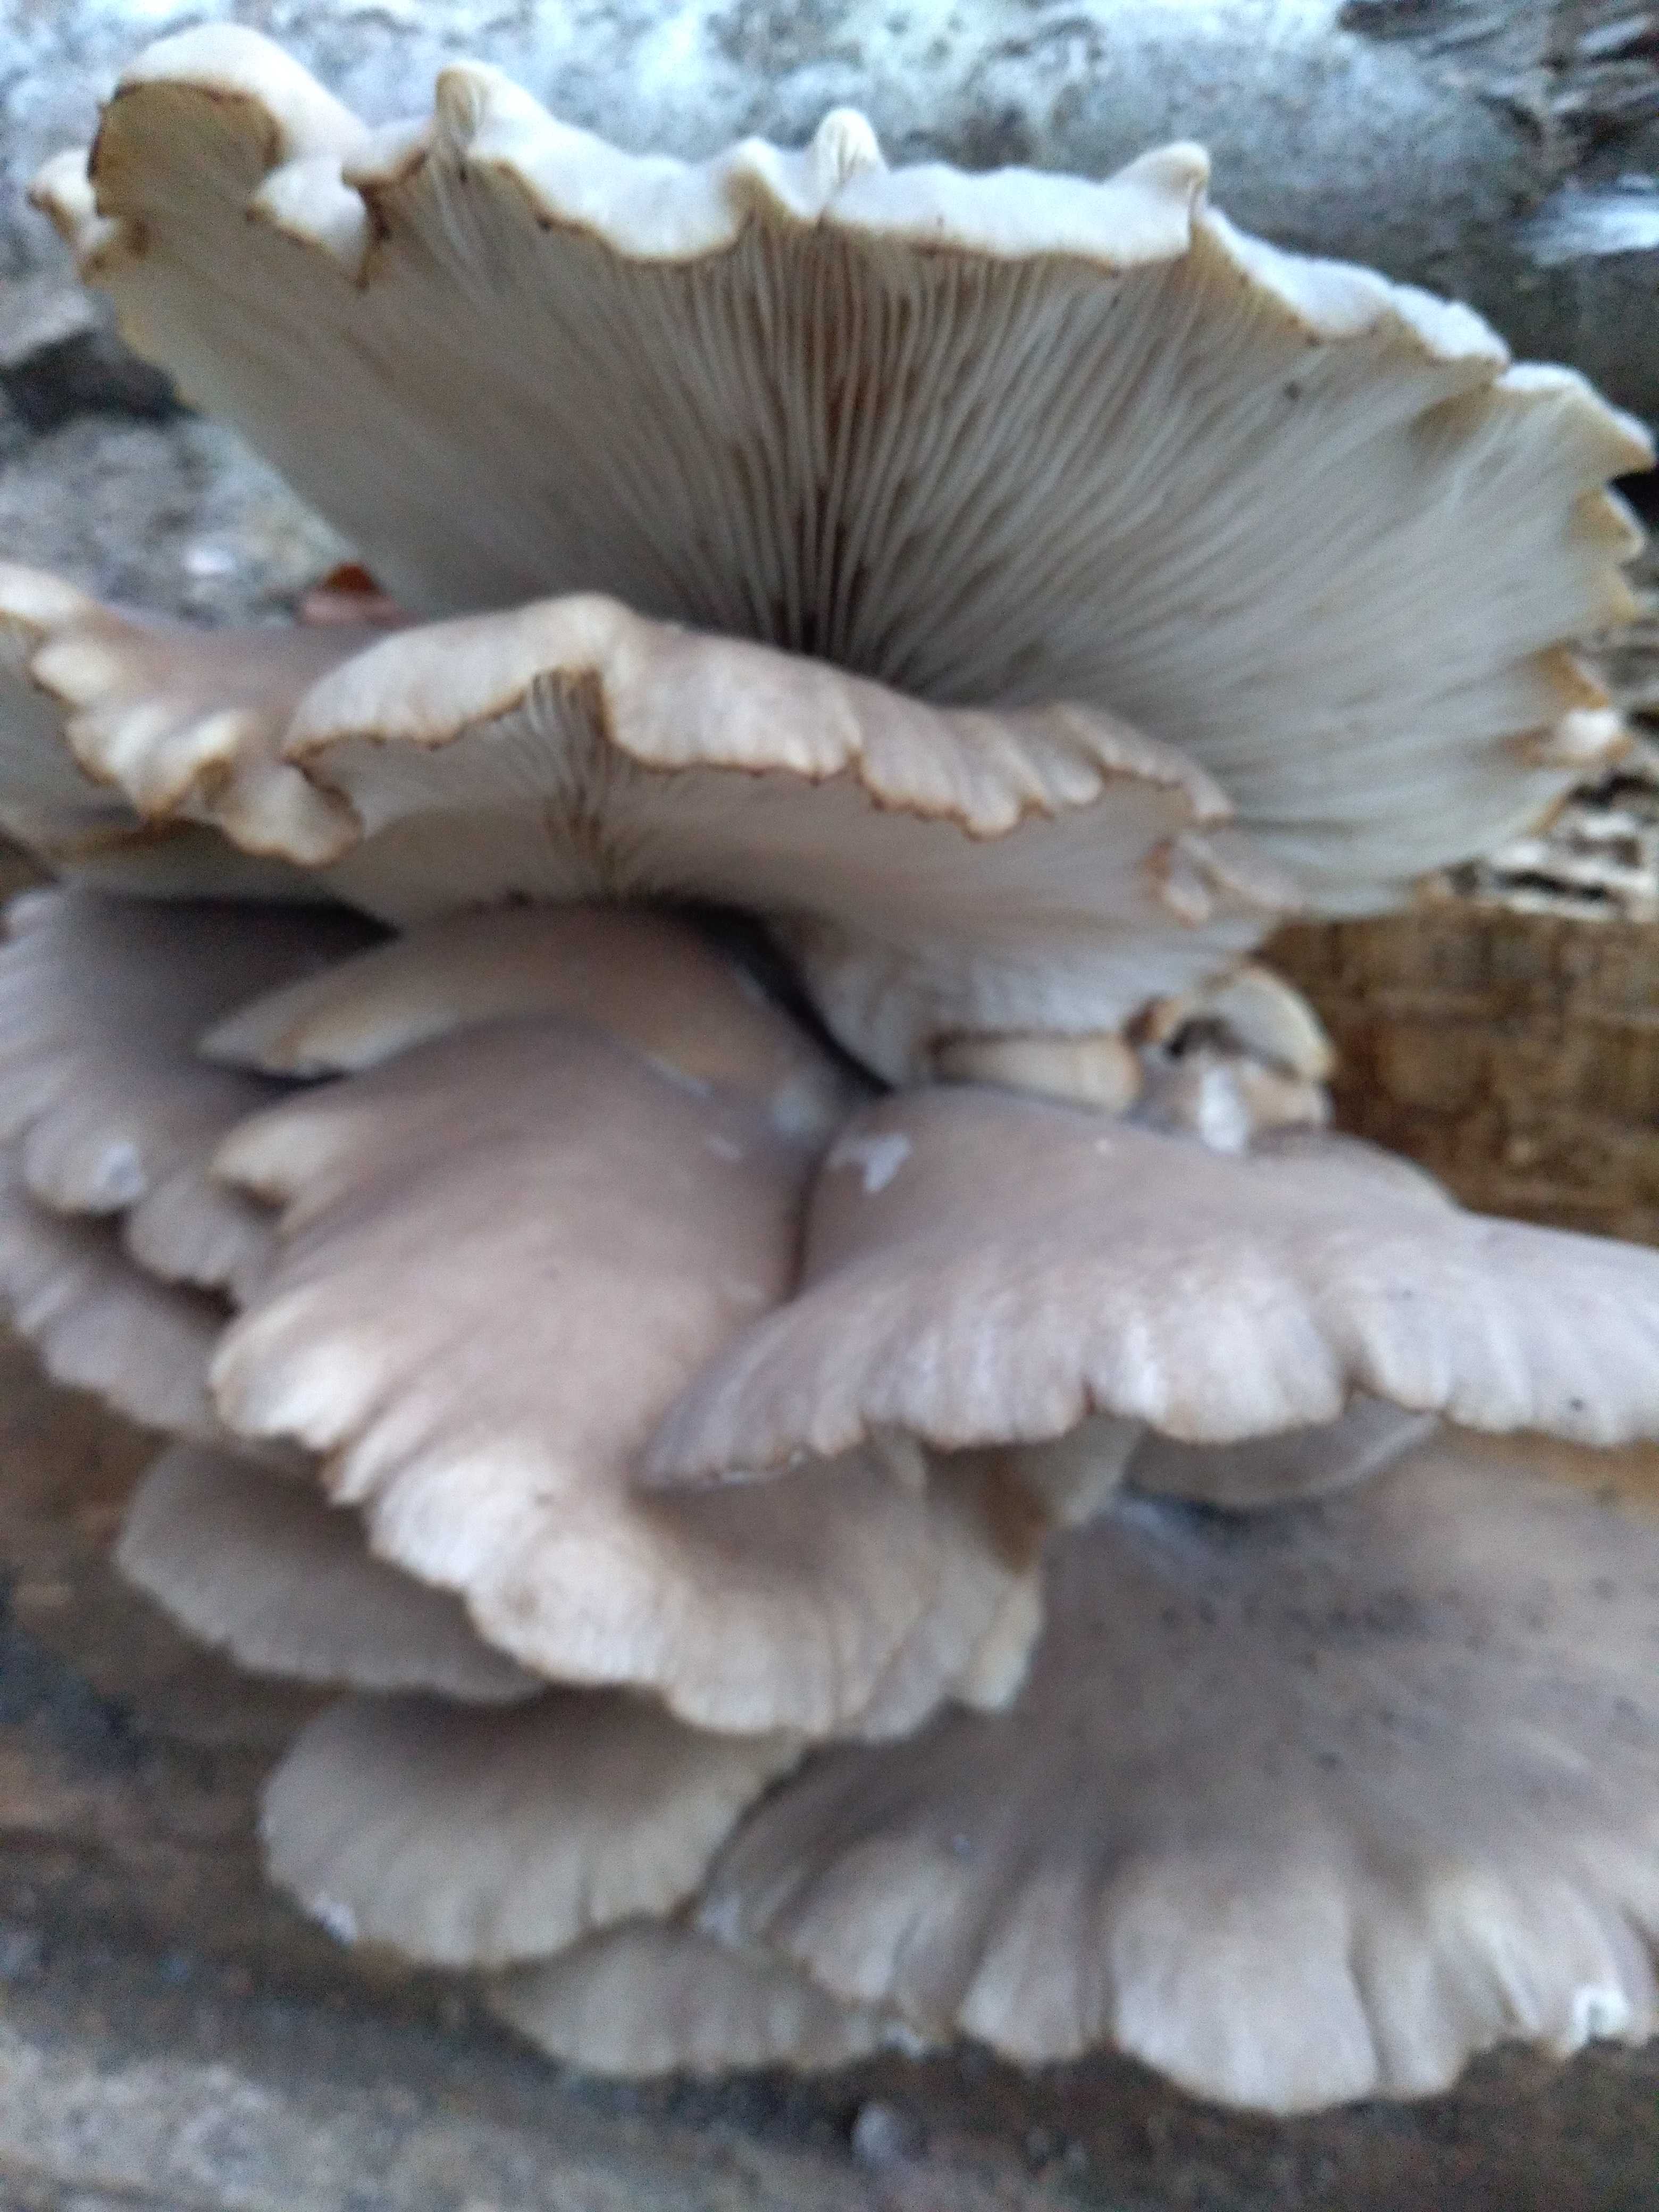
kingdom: Fungi
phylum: Basidiomycota
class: Agaricomycetes
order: Agaricales
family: Pleurotaceae
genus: Pleurotus
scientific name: Pleurotus ostreatus
